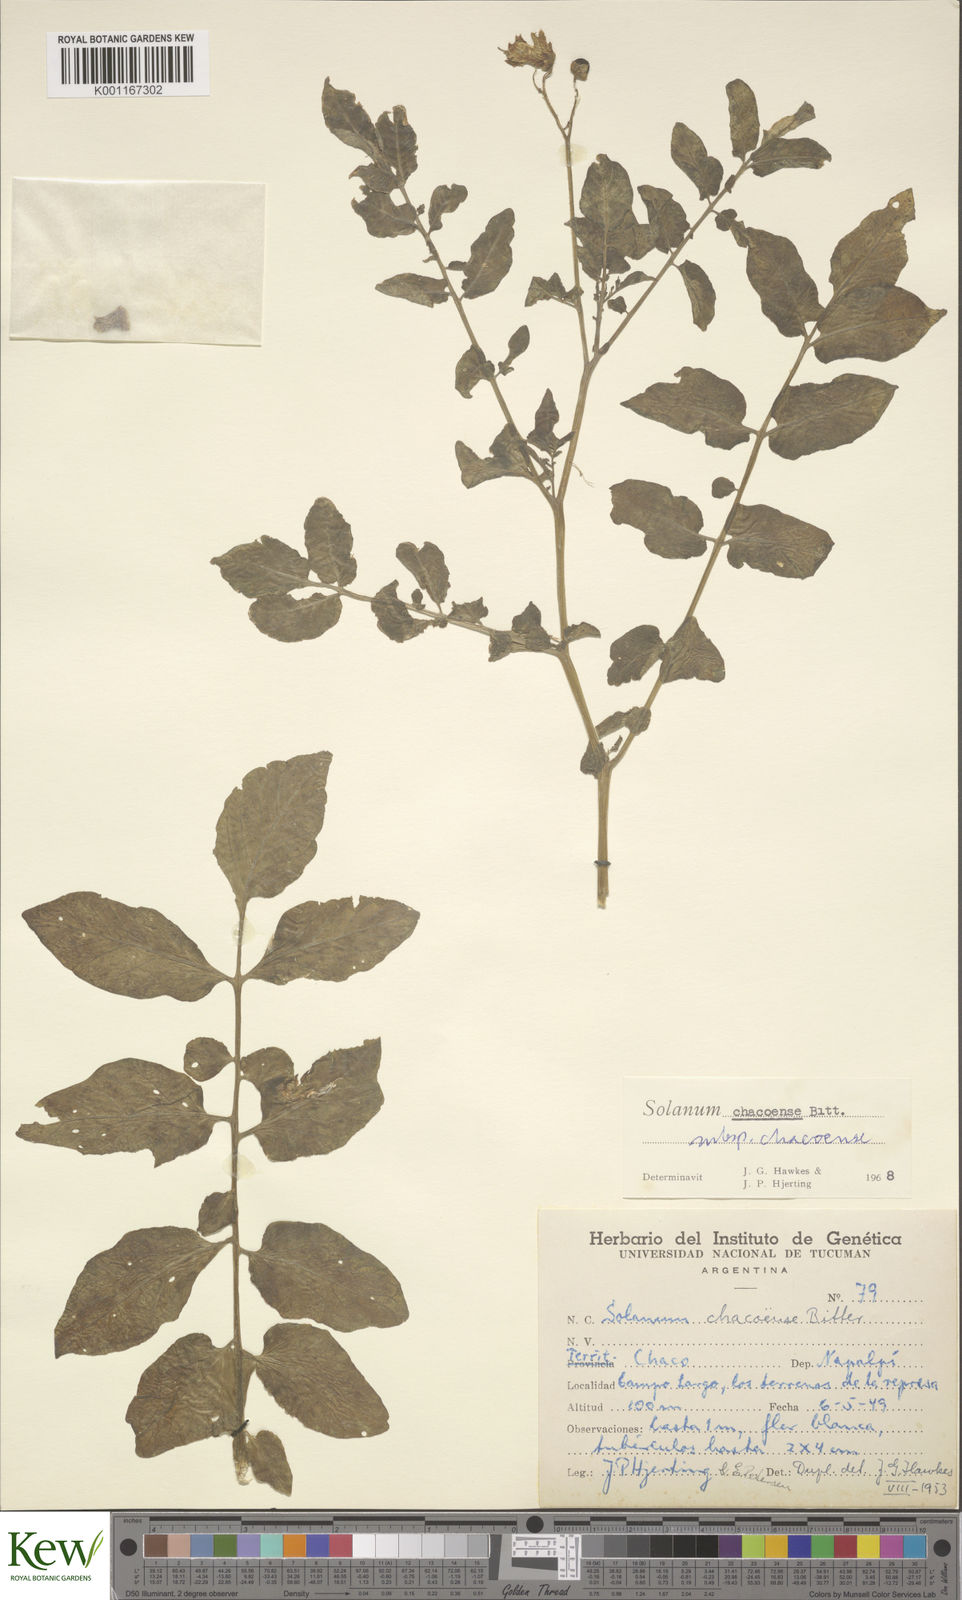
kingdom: Plantae
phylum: Tracheophyta
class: Magnoliopsida
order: Solanales
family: Solanaceae
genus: Solanum
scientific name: Solanum chacoense
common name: Chaco potato
